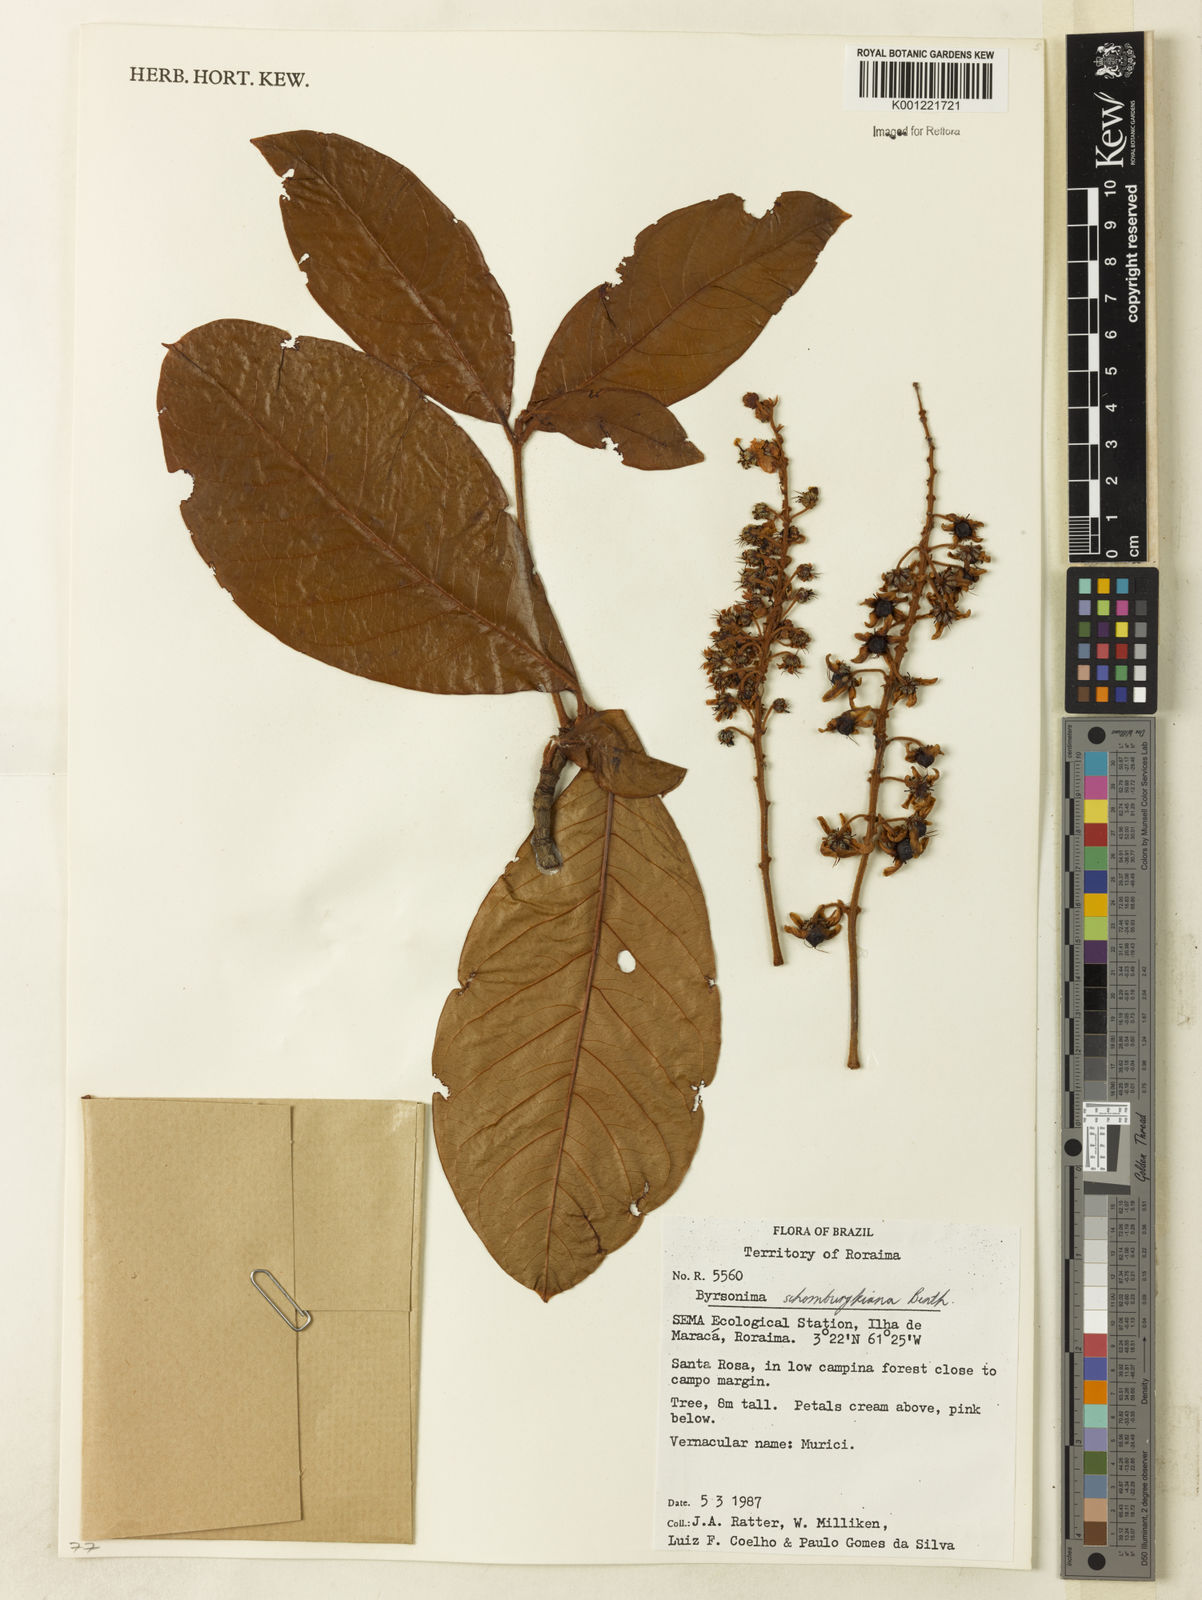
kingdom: Plantae
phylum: Tracheophyta
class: Magnoliopsida
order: Malpighiales
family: Malpighiaceae
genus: Byrsonima
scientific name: Byrsonima schomburgkiana
